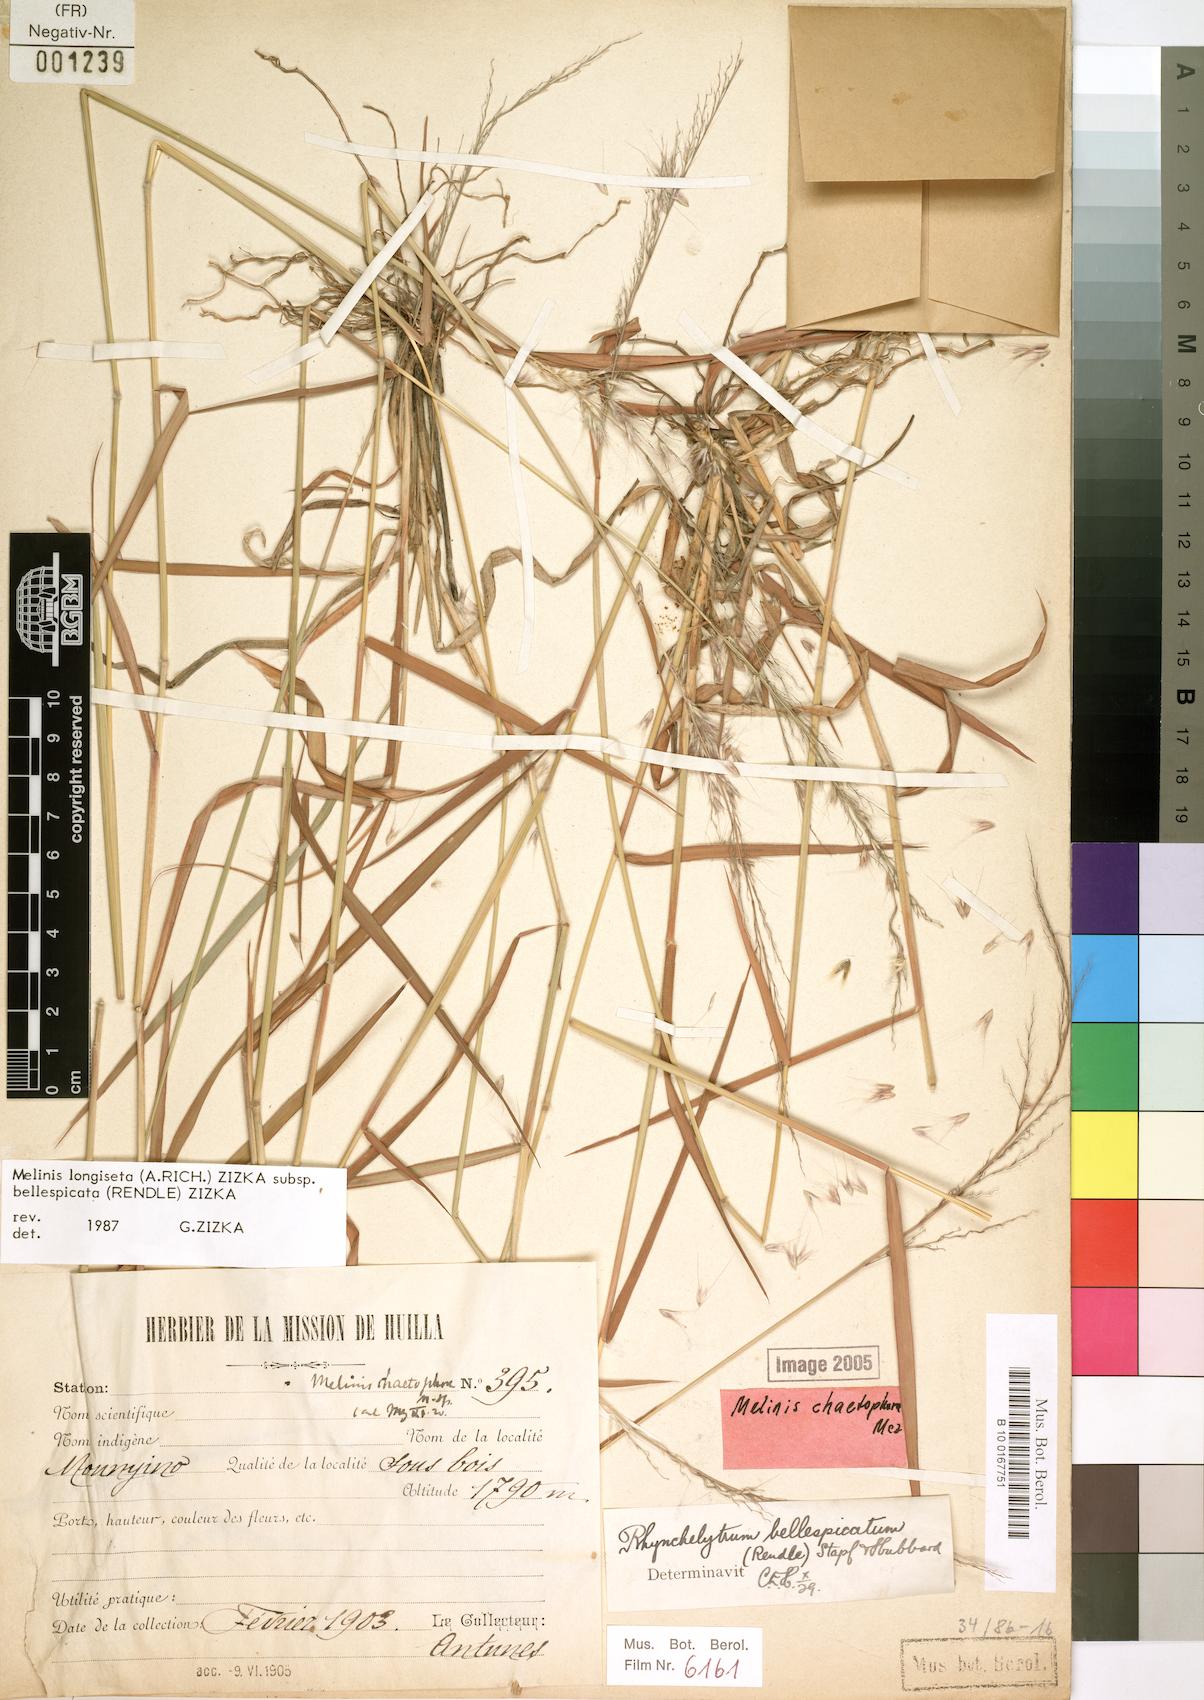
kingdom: Plantae
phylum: Tracheophyta
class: Liliopsida
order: Poales
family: Poaceae
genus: Melinis
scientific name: Melinis longiseta
